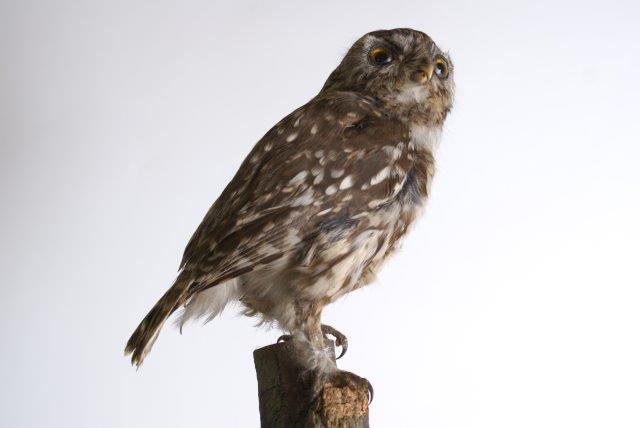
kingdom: Animalia
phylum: Chordata
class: Aves
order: Strigiformes
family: Strigidae
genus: Athene
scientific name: Athene noctua
